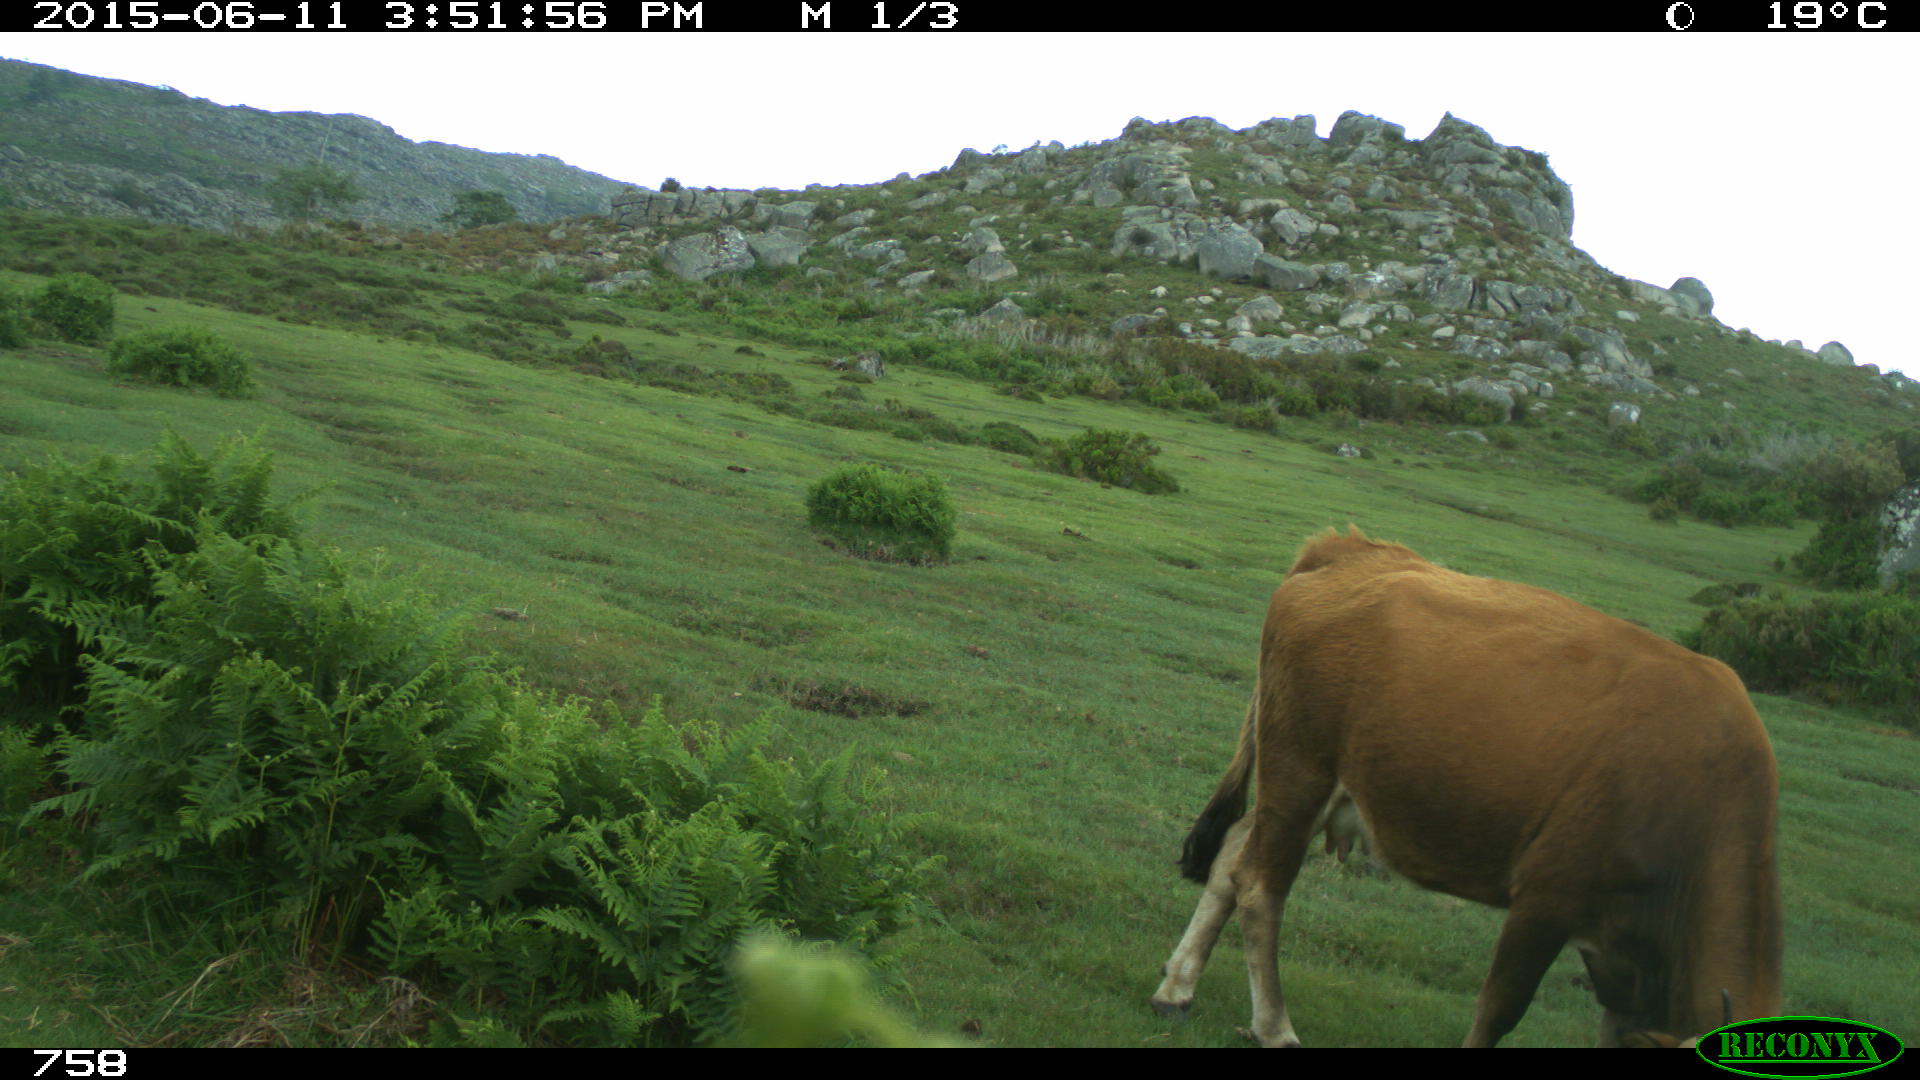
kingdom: Animalia
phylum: Chordata
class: Mammalia
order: Artiodactyla
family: Bovidae
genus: Bos
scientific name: Bos taurus
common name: Domesticated cattle
